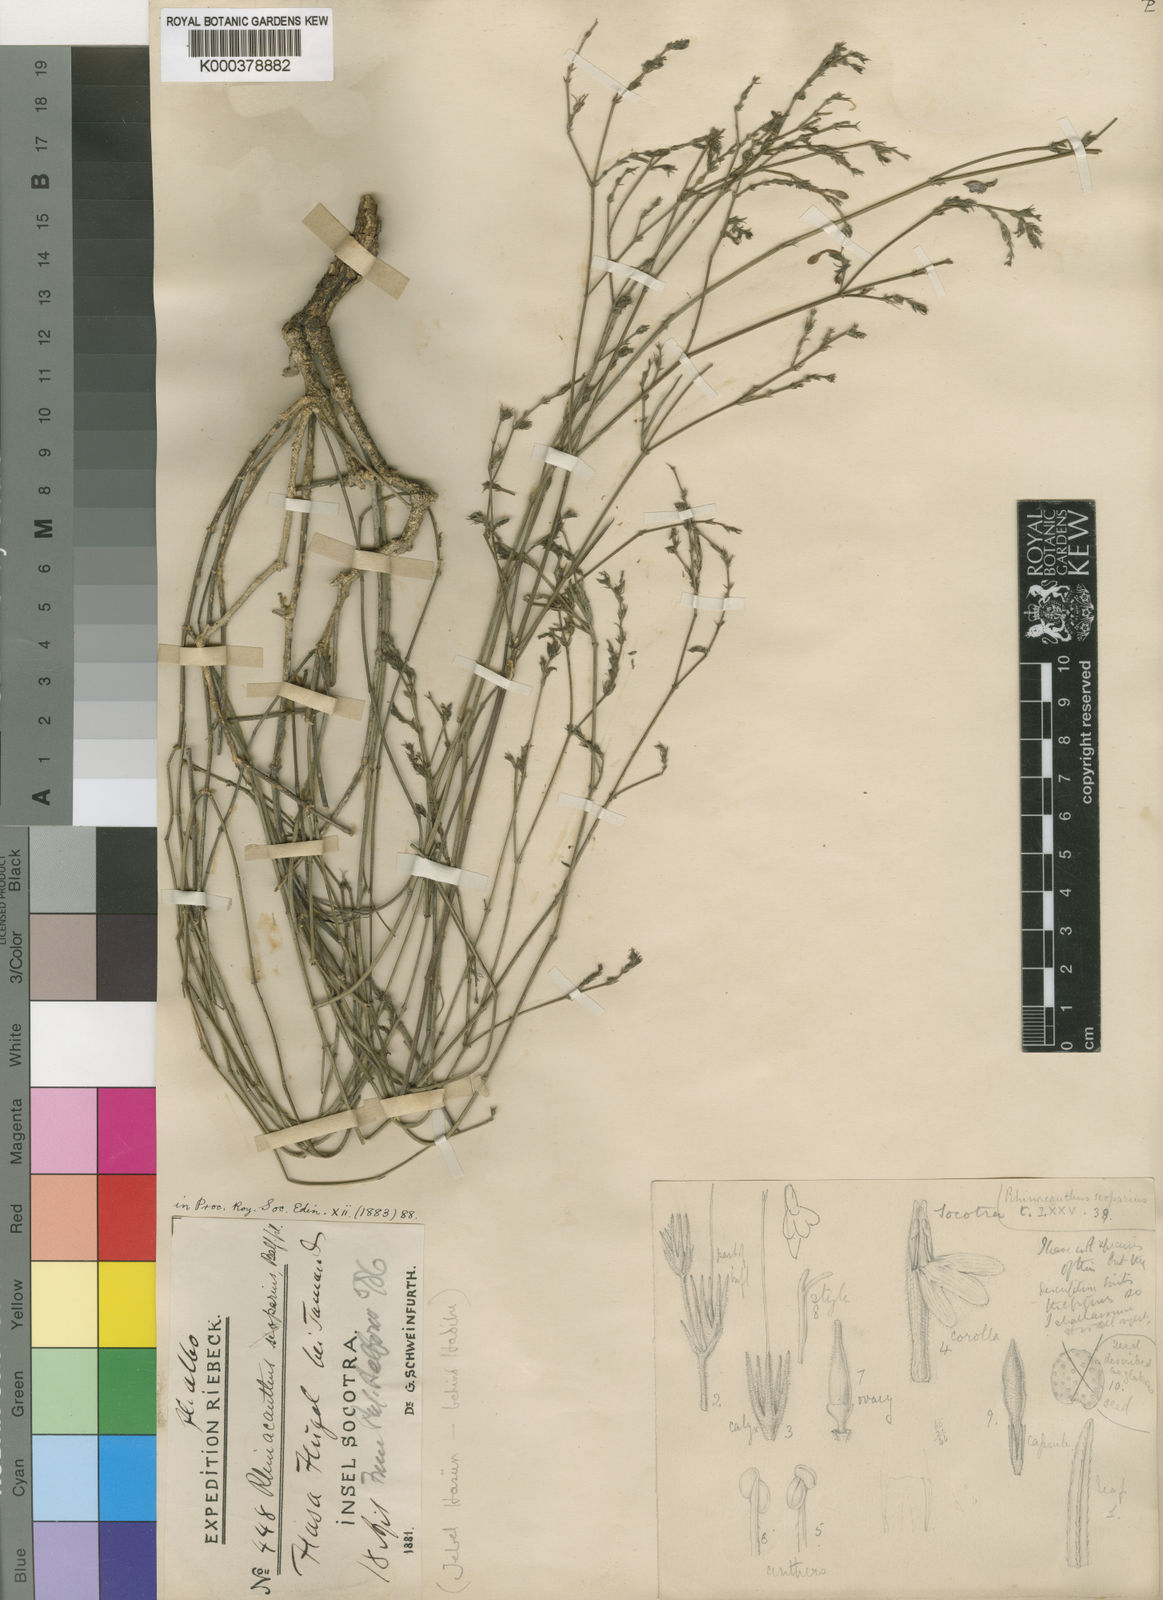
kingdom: Plantae
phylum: Tracheophyta
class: Magnoliopsida
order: Lamiales
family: Acanthaceae
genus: Rhinacanthus
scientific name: Rhinacanthus scoparius
